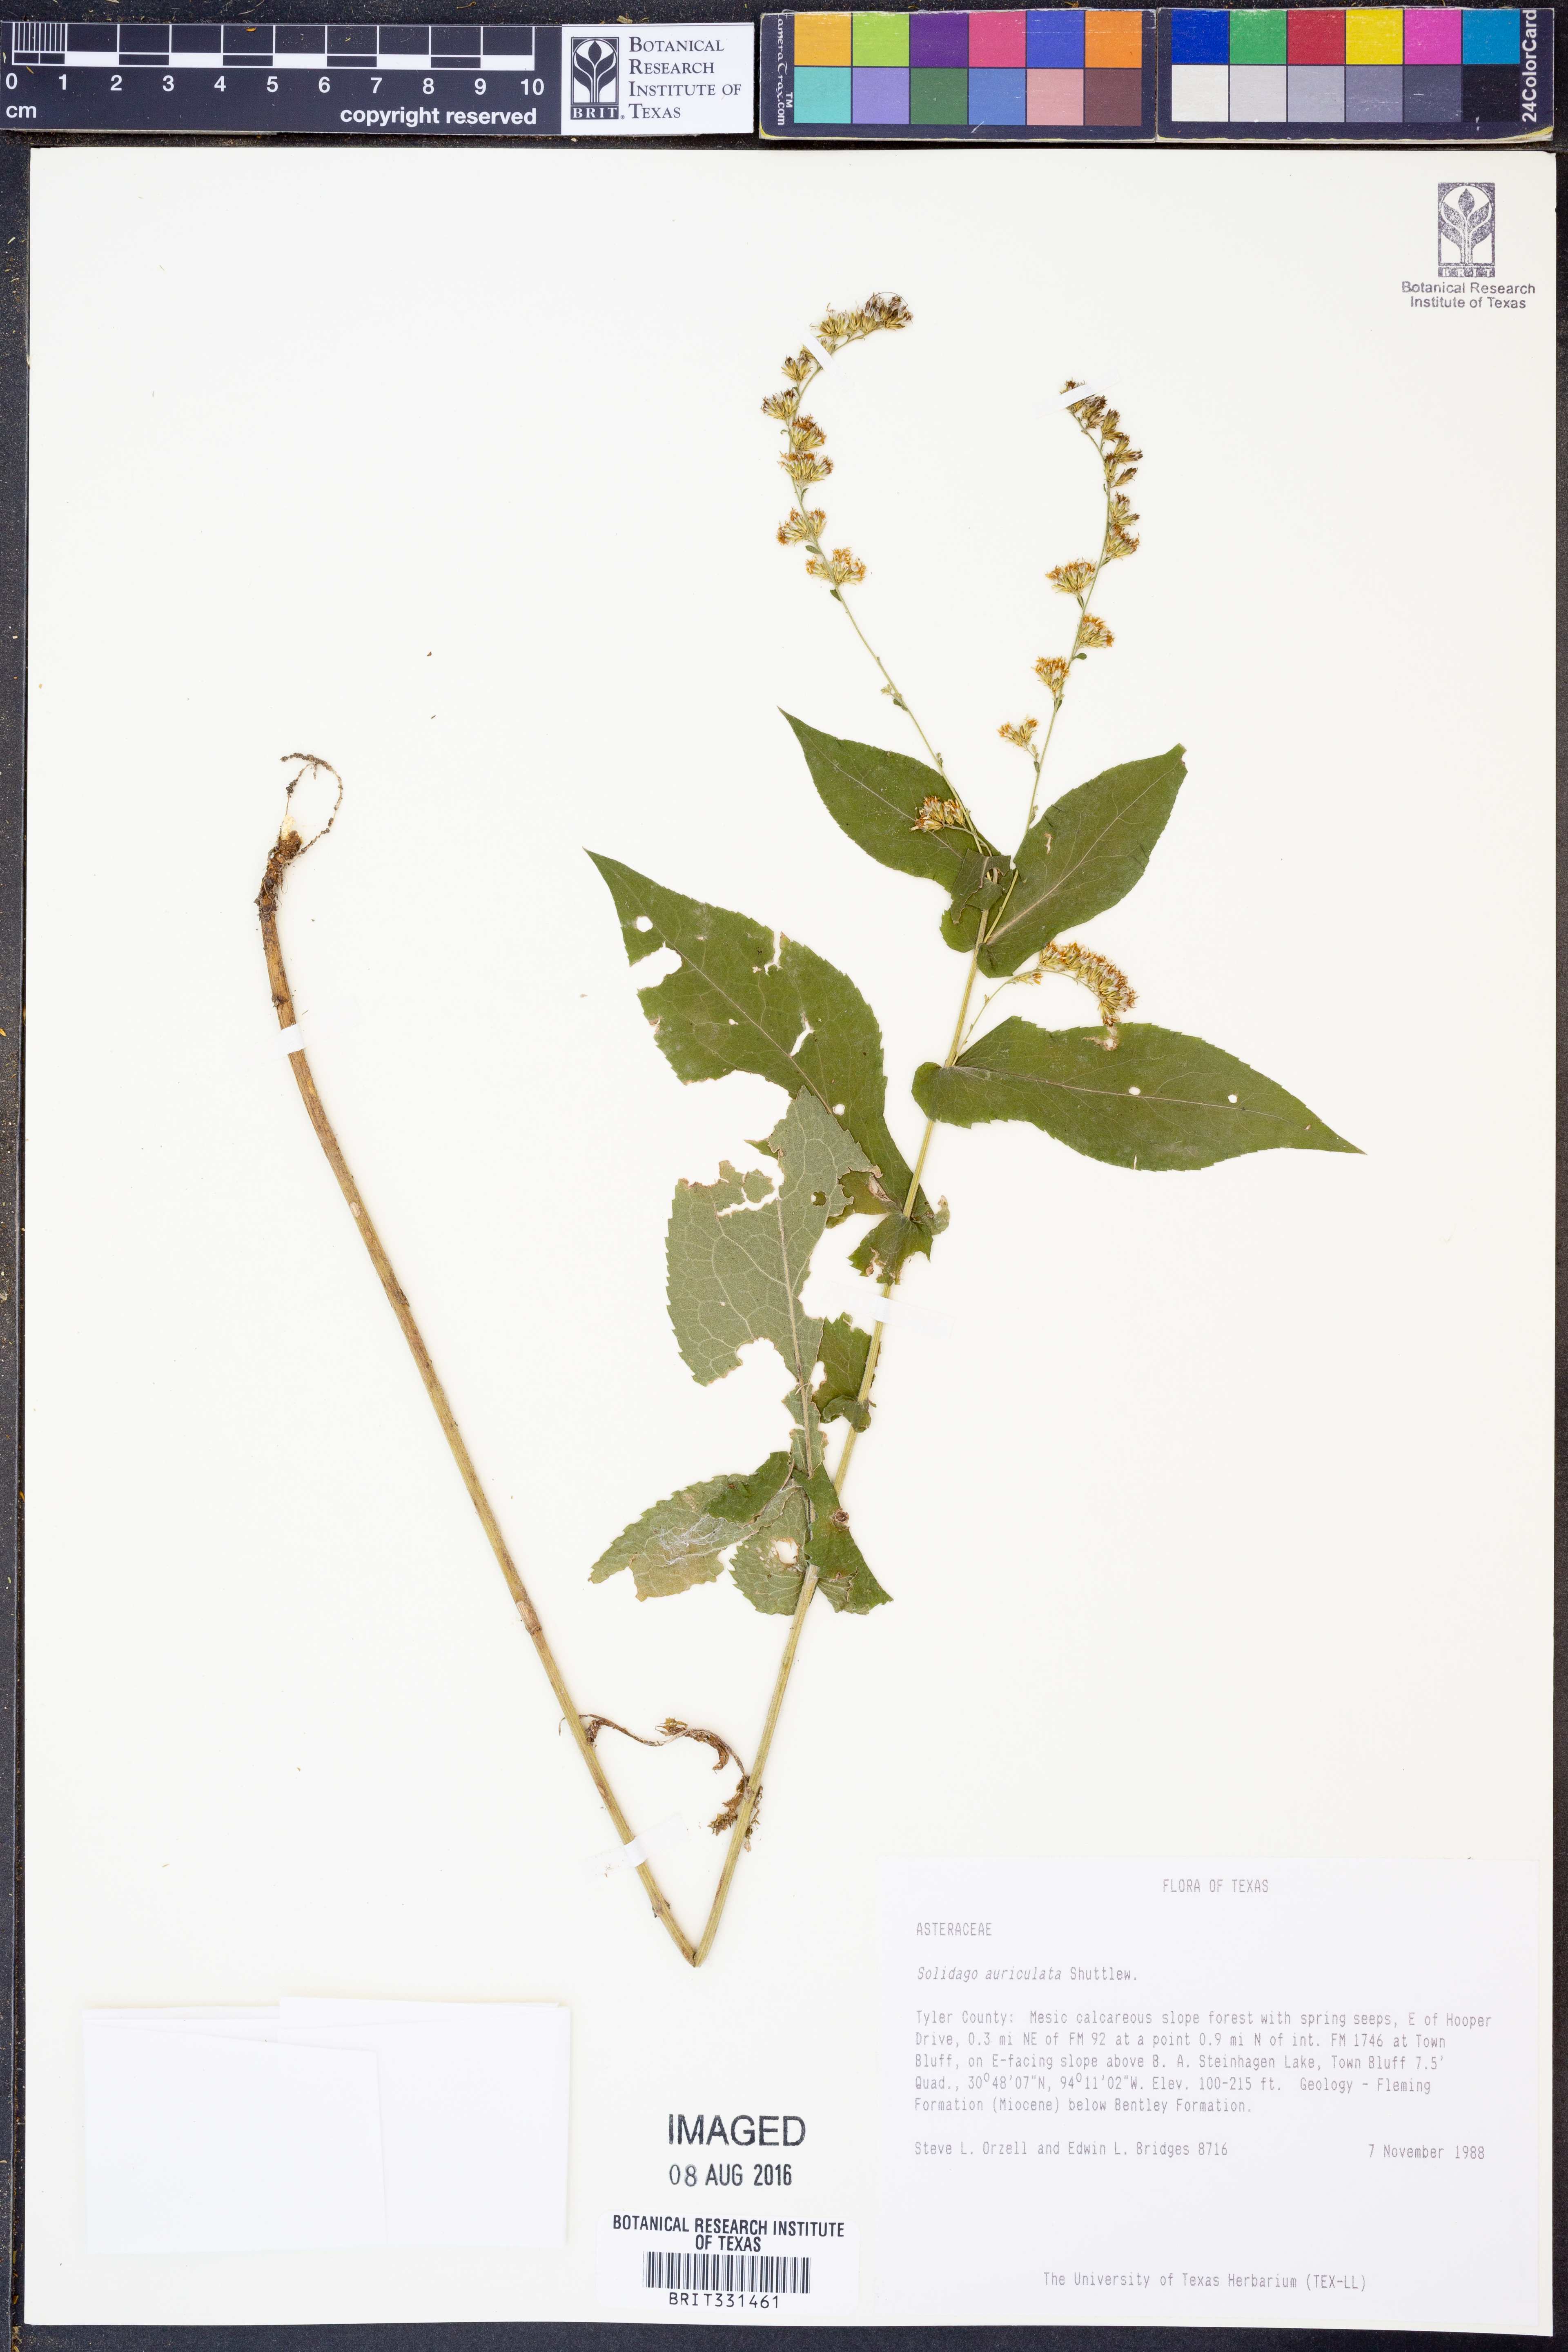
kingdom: Plantae
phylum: Tracheophyta
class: Magnoliopsida
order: Asterales
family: Asteraceae
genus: Solidago
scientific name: Solidago auriculata
